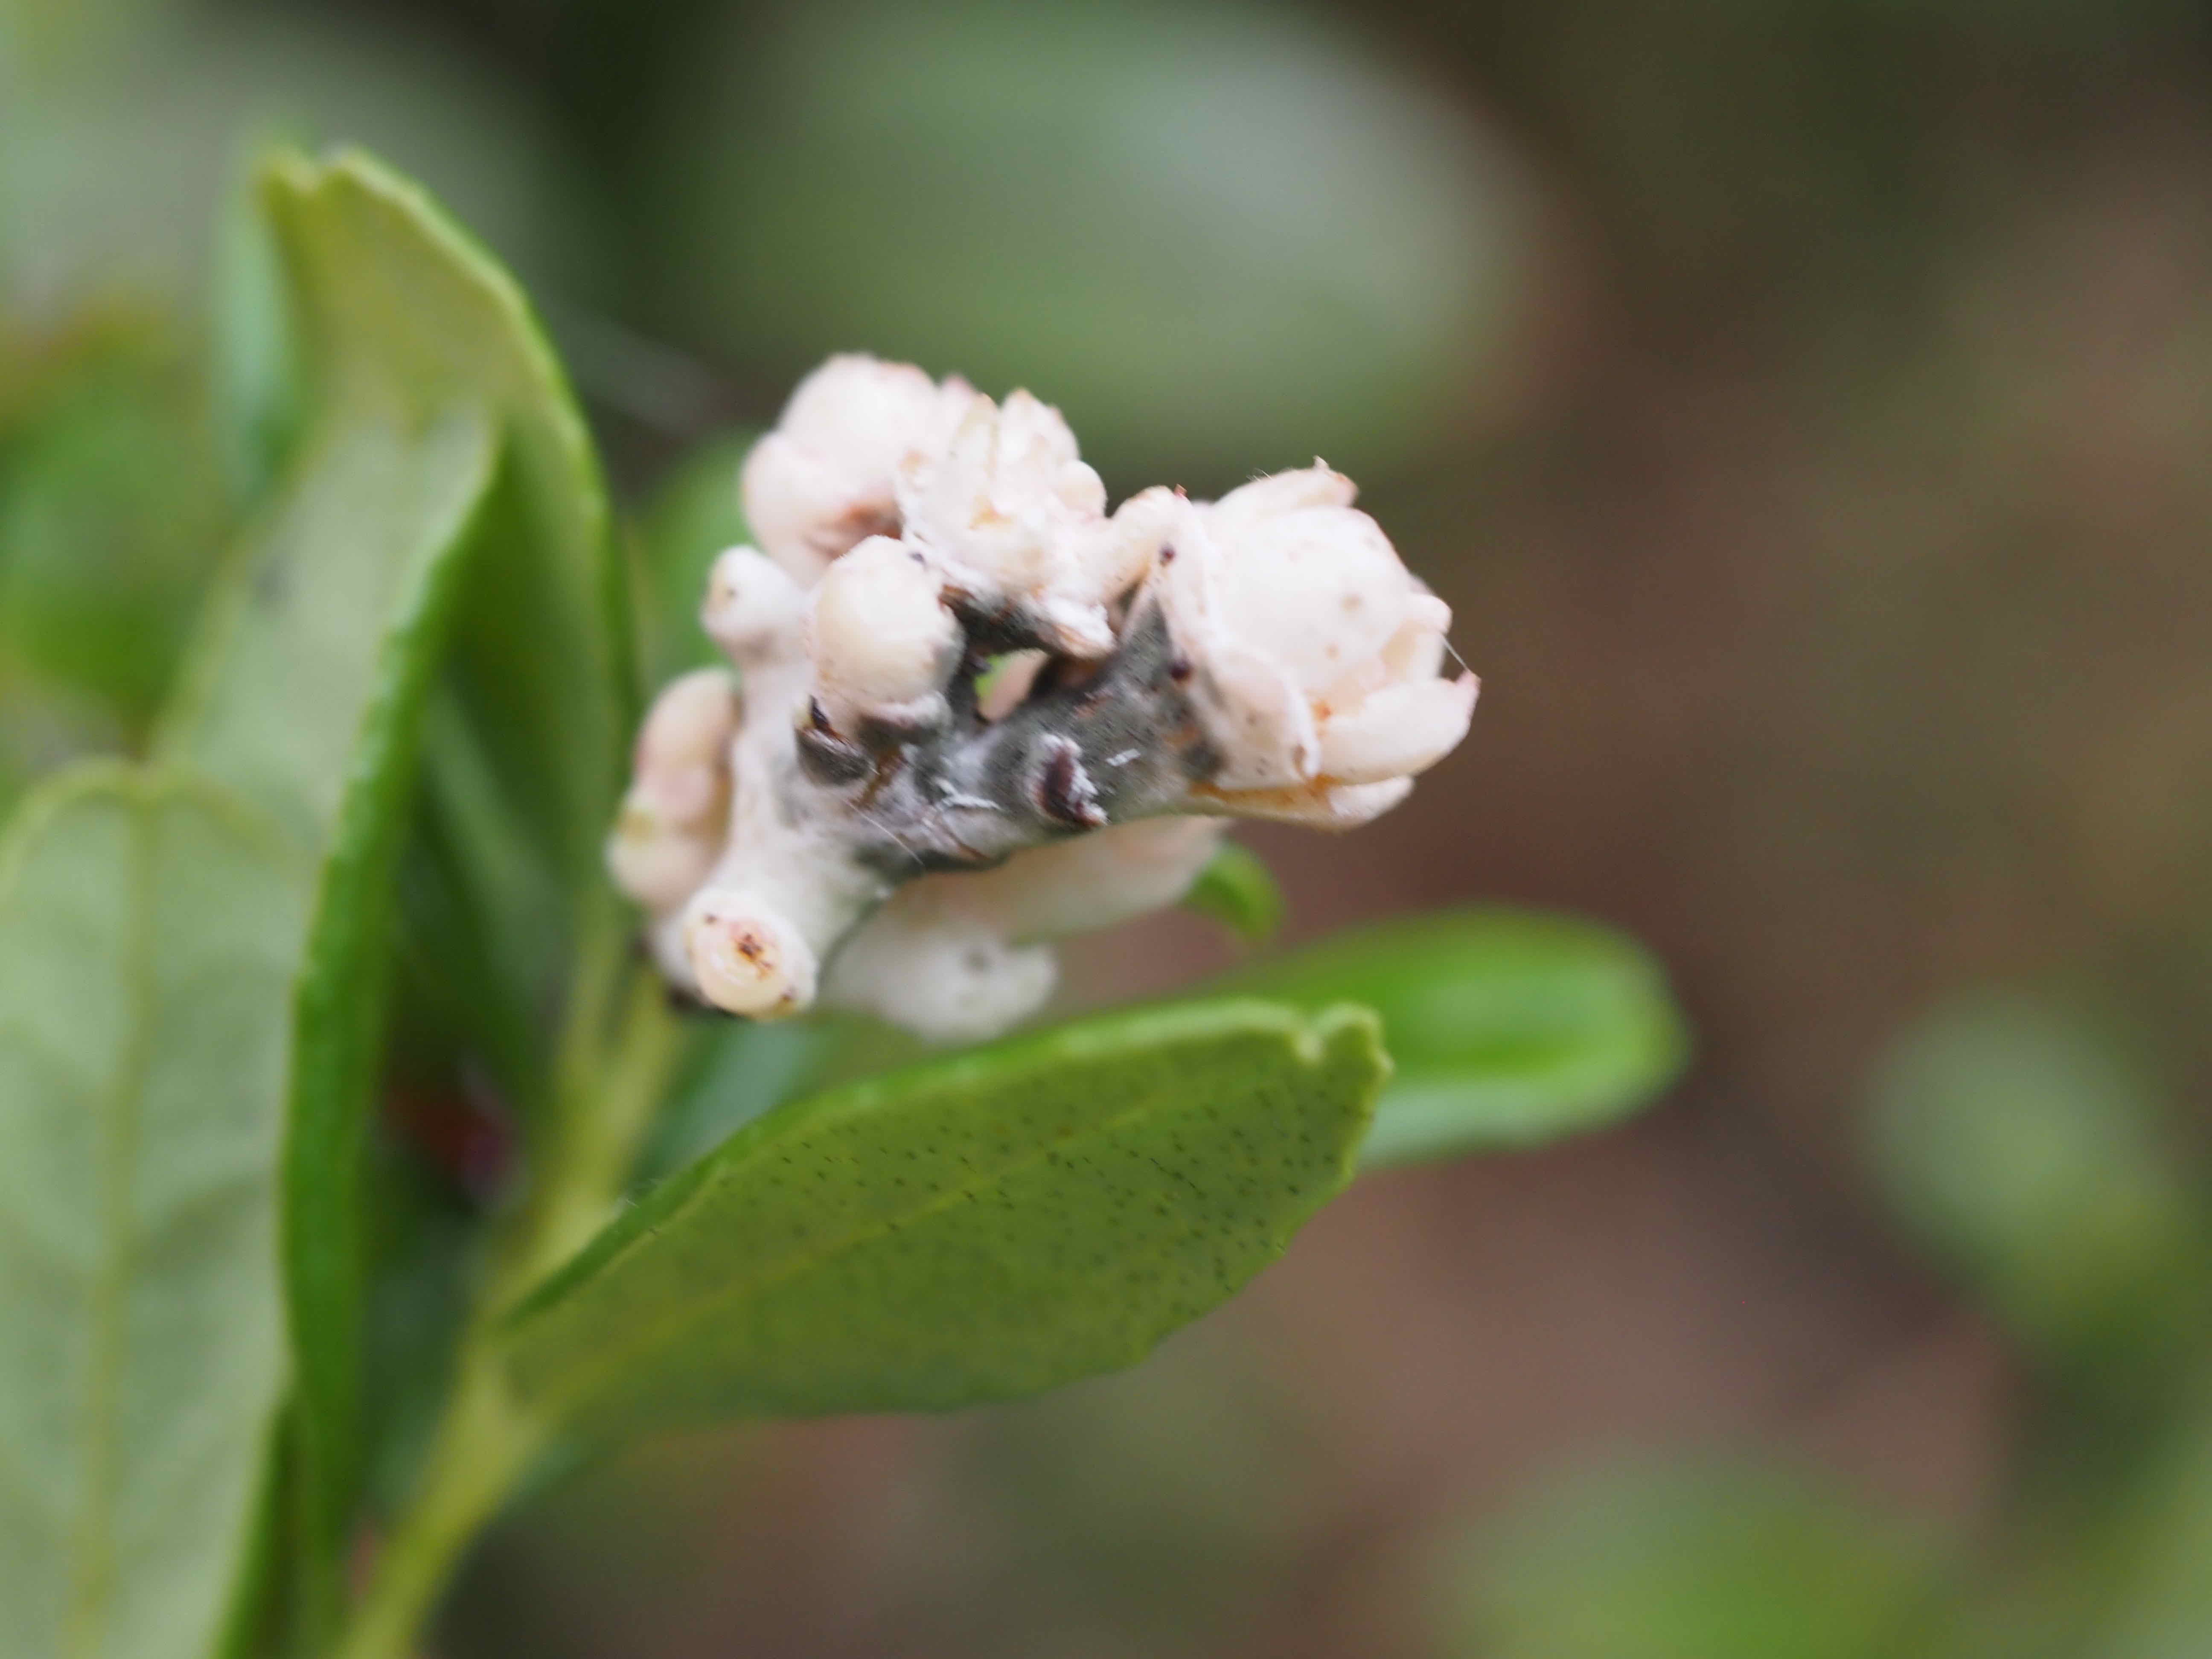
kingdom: Fungi
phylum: Basidiomycota
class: Exobasidiomycetes
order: Exobasidiales
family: Exobasidiaceae
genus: Exobasidium
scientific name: Exobasidium
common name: bøllesvamp
